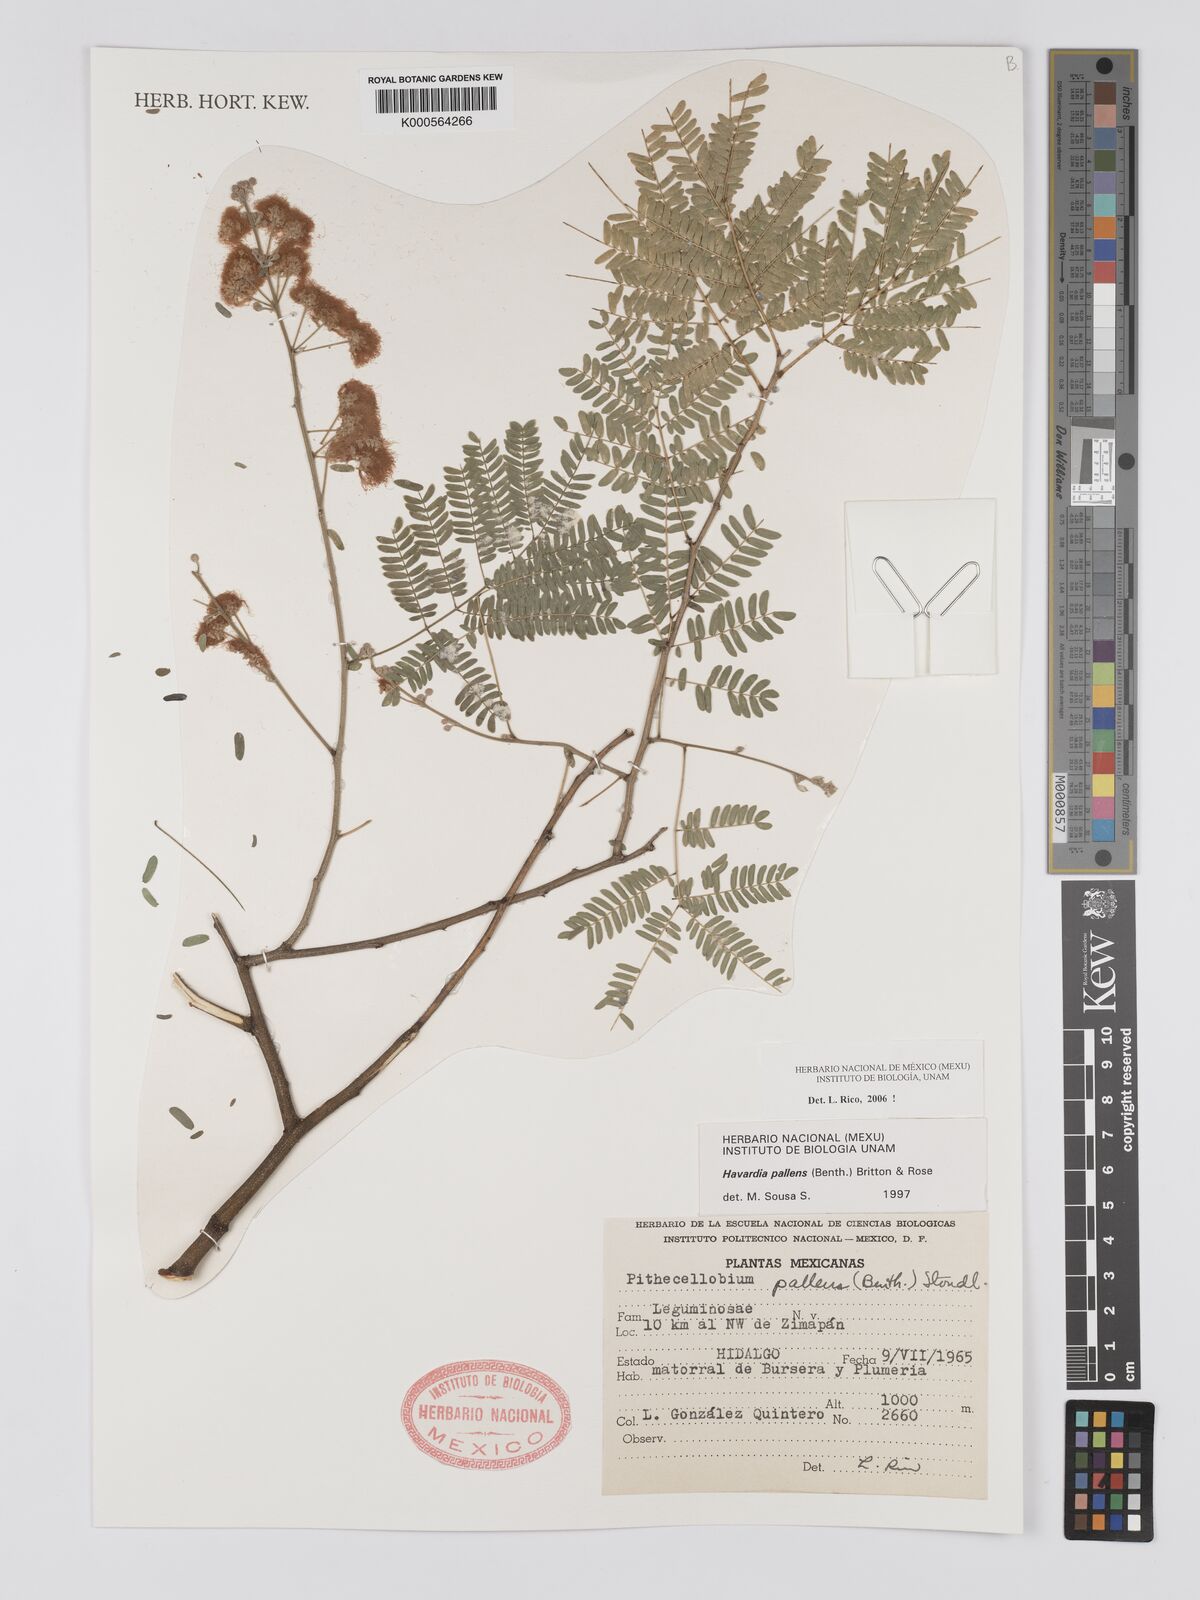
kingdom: Plantae
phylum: Tracheophyta
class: Magnoliopsida
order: Fabales
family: Fabaceae
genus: Havardia
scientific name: Havardia pallens
